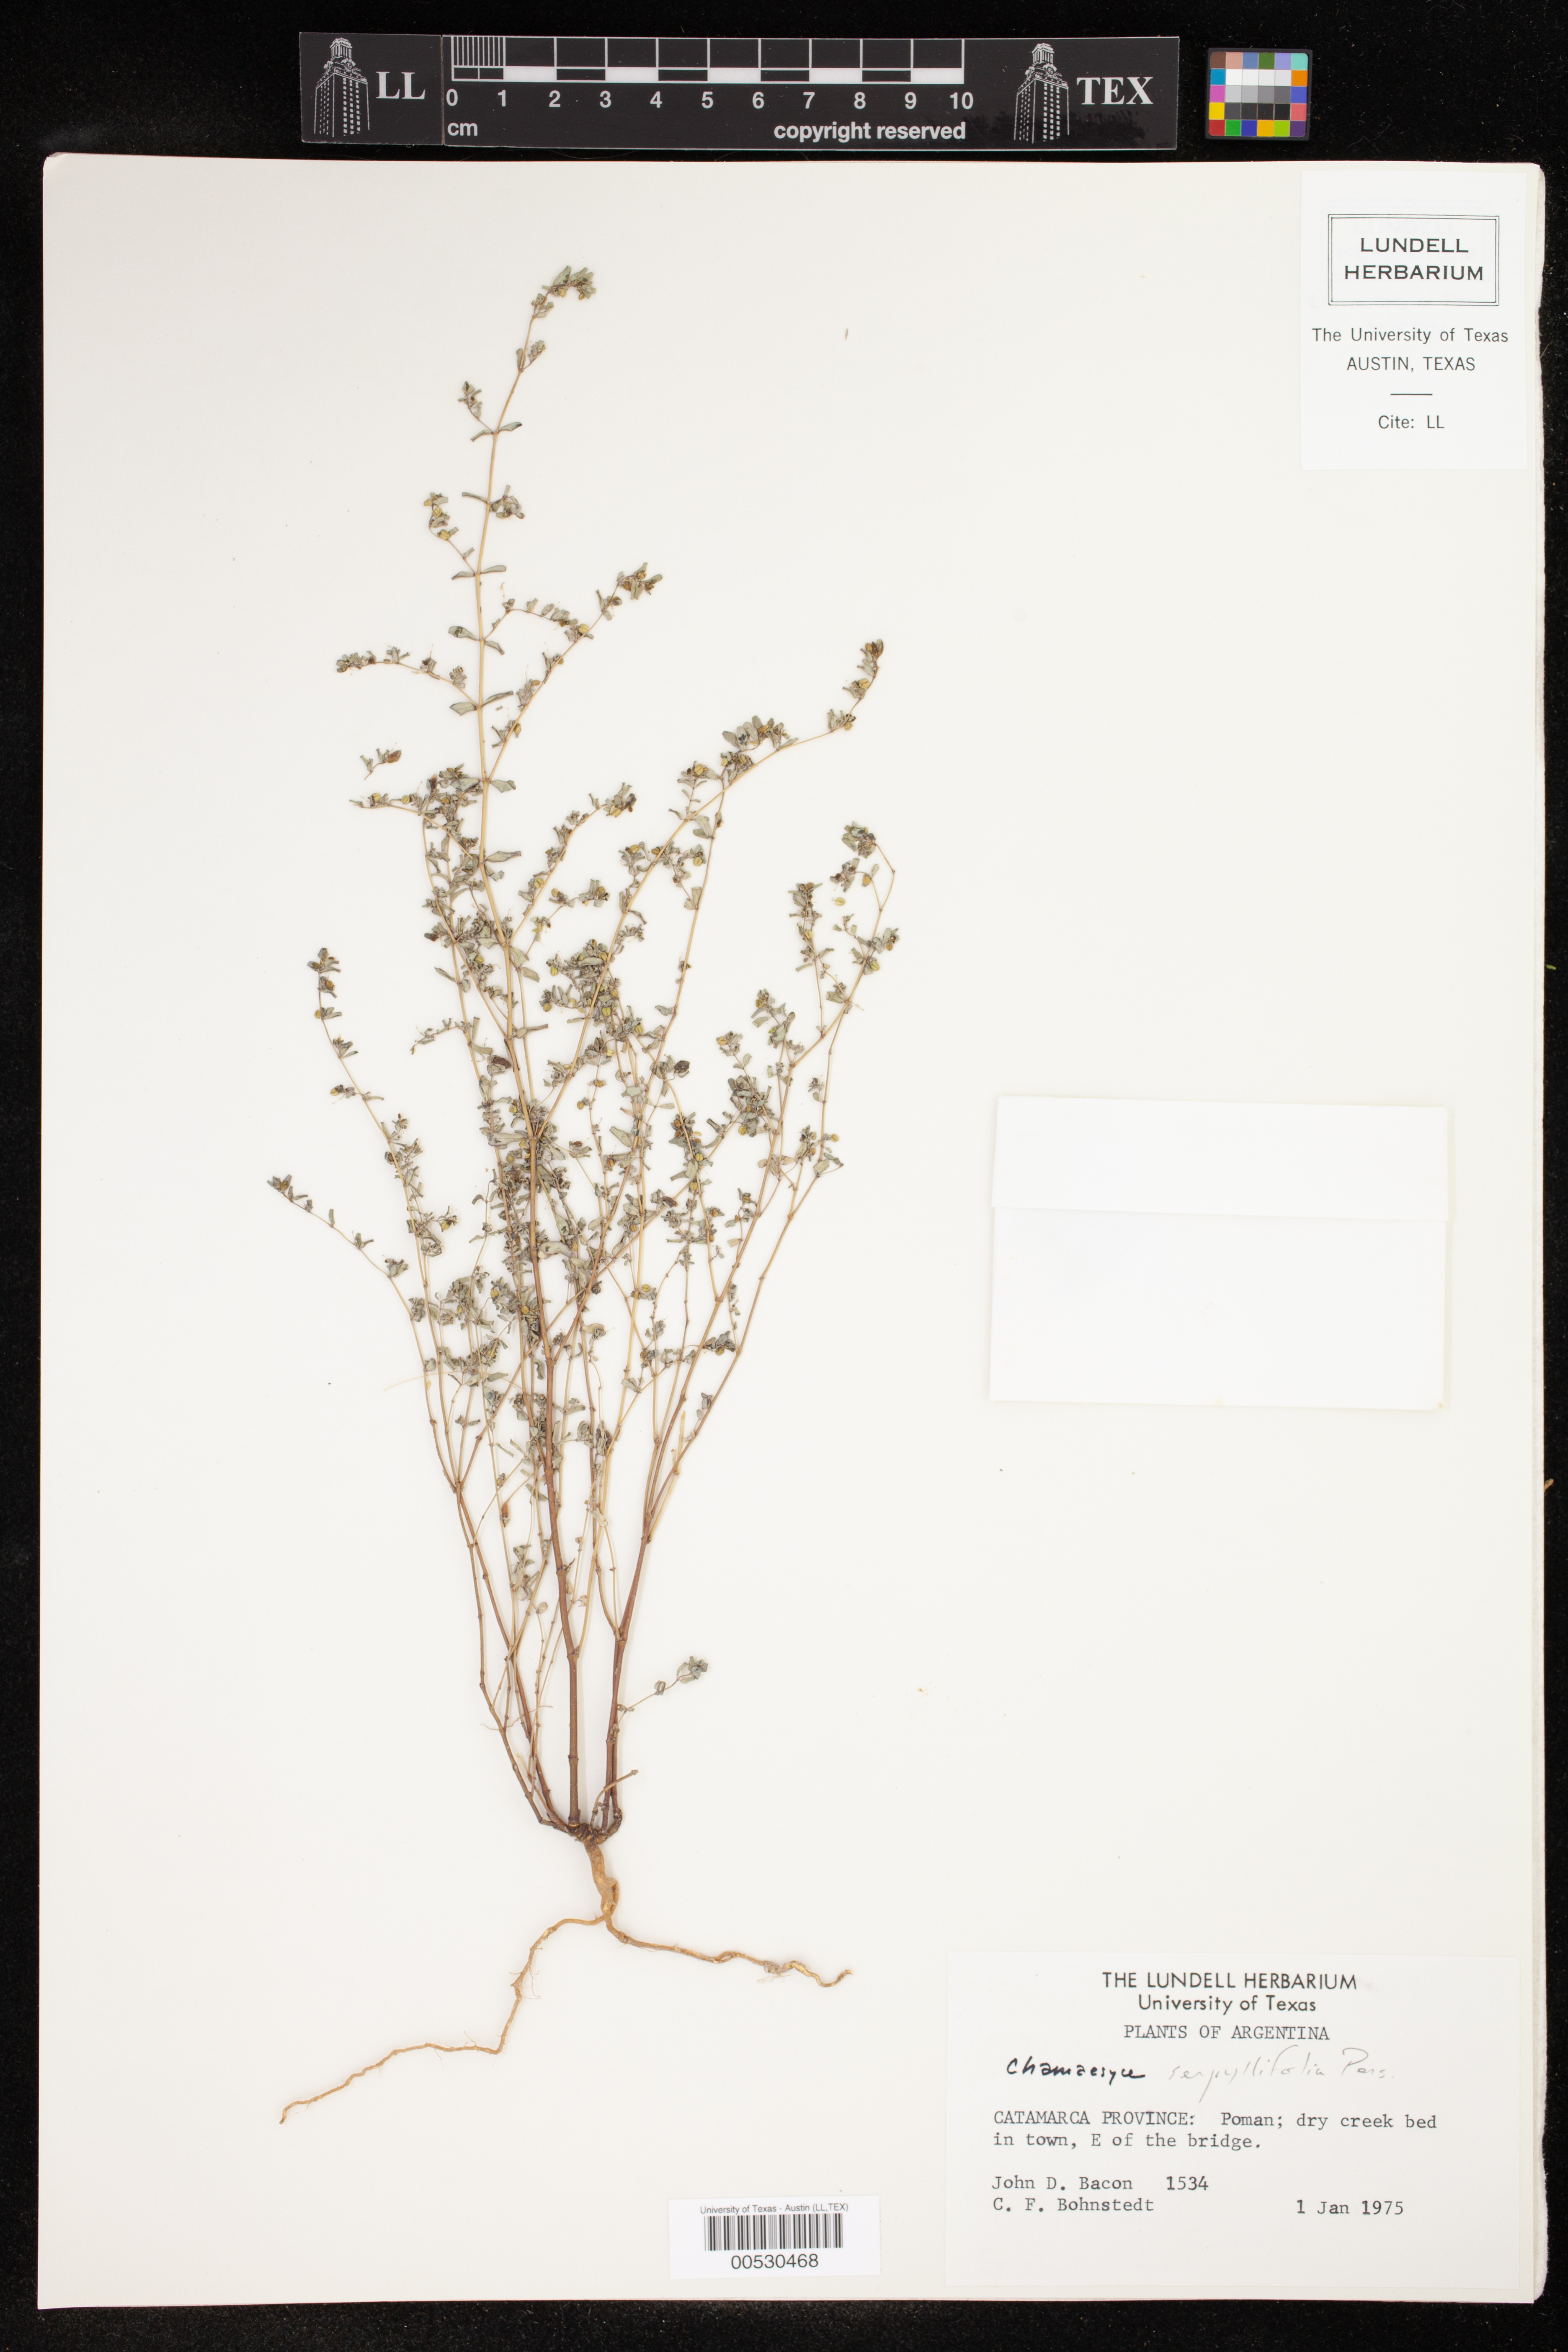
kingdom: Plantae
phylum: Tracheophyta
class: Magnoliopsida
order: Malpighiales
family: Euphorbiaceae
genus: Euphorbia
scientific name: Euphorbia serpillifolia
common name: Thyme-leaf spurge
